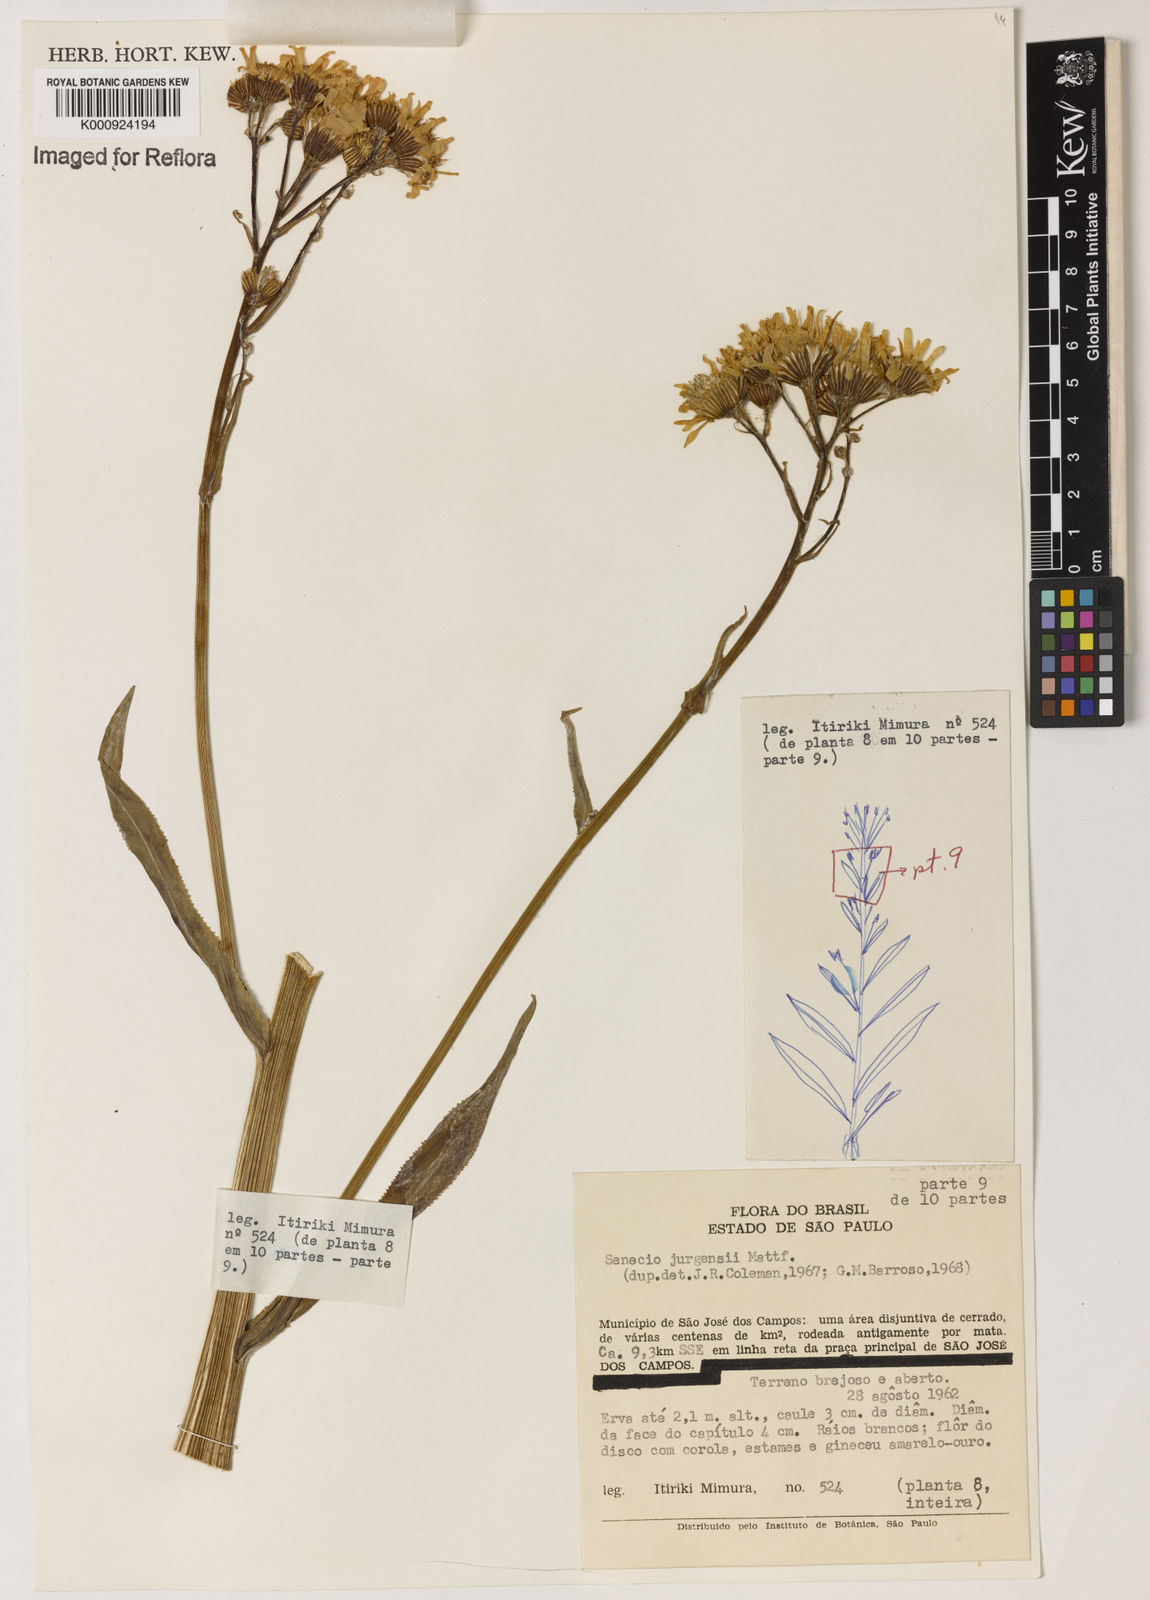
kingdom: Plantae
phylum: Tracheophyta
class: Magnoliopsida
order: Asterales
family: Asteraceae
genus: Senecio
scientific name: Senecio juergensii
